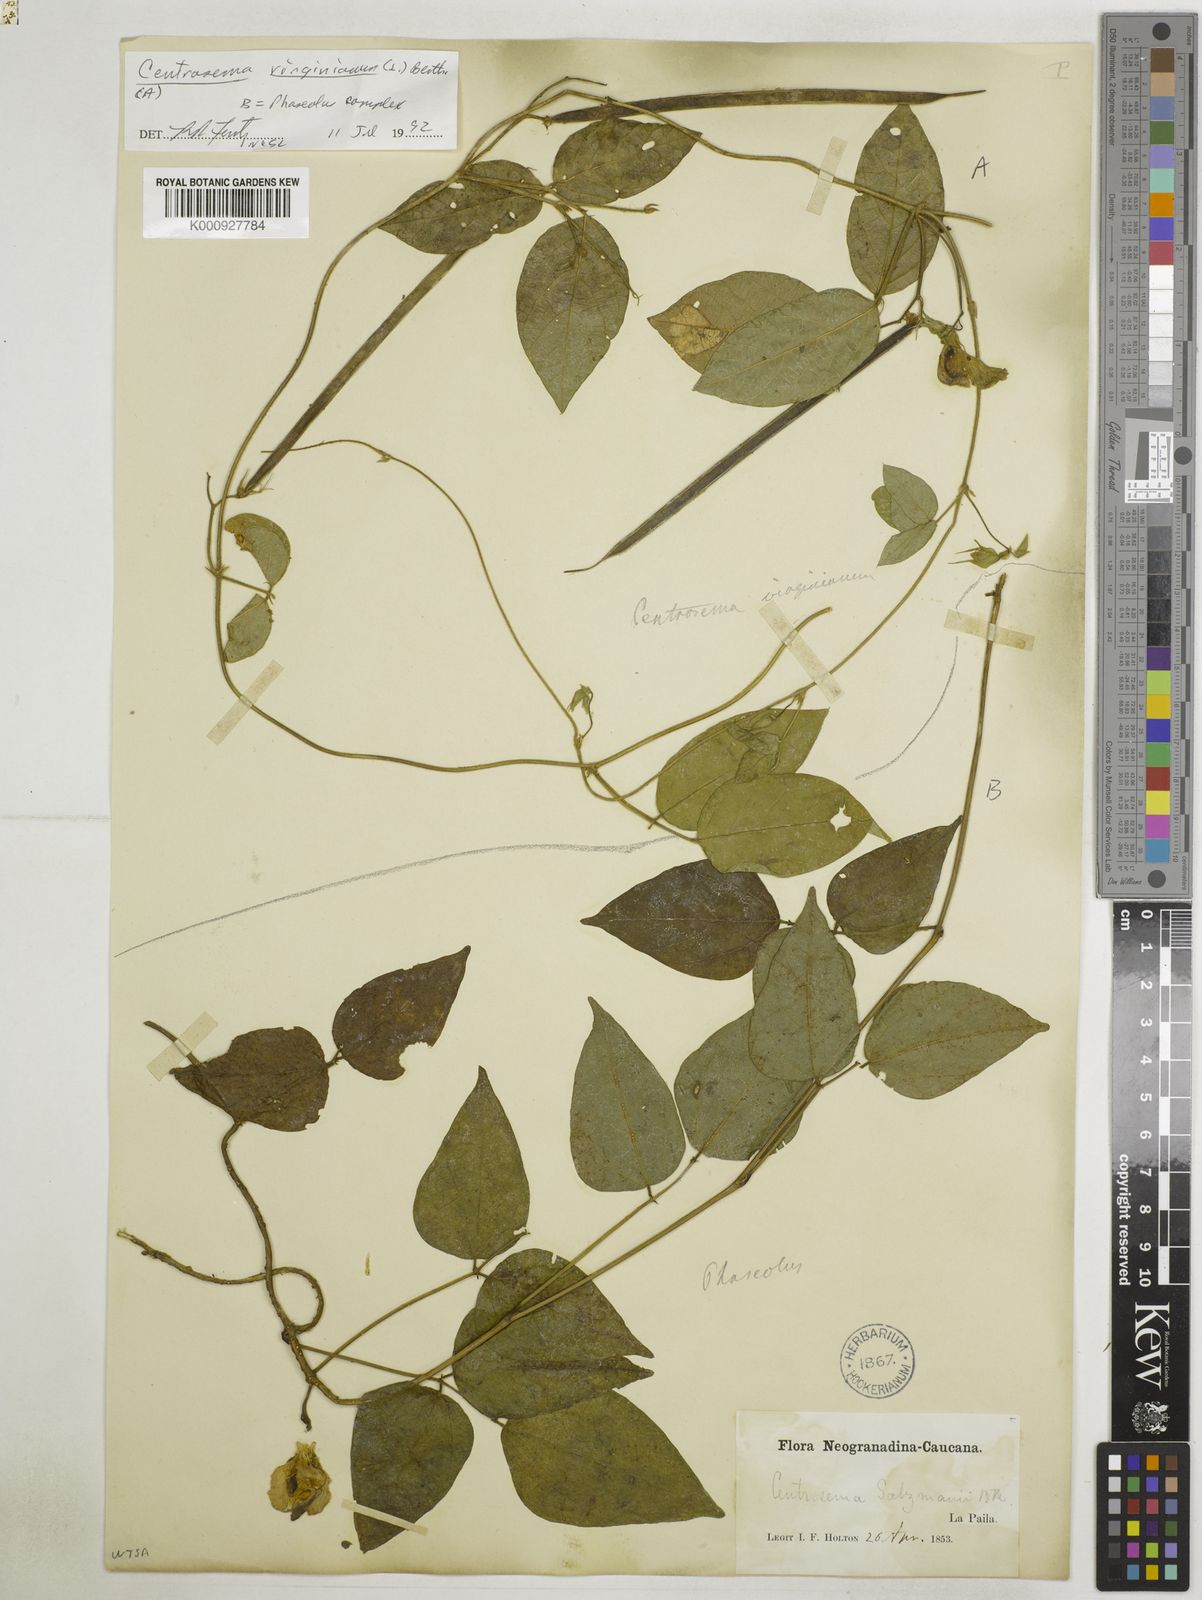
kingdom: Plantae
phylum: Tracheophyta
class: Magnoliopsida
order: Fabales
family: Fabaceae
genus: Centrosema
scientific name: Centrosema virginianum
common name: Butterfly-pea
